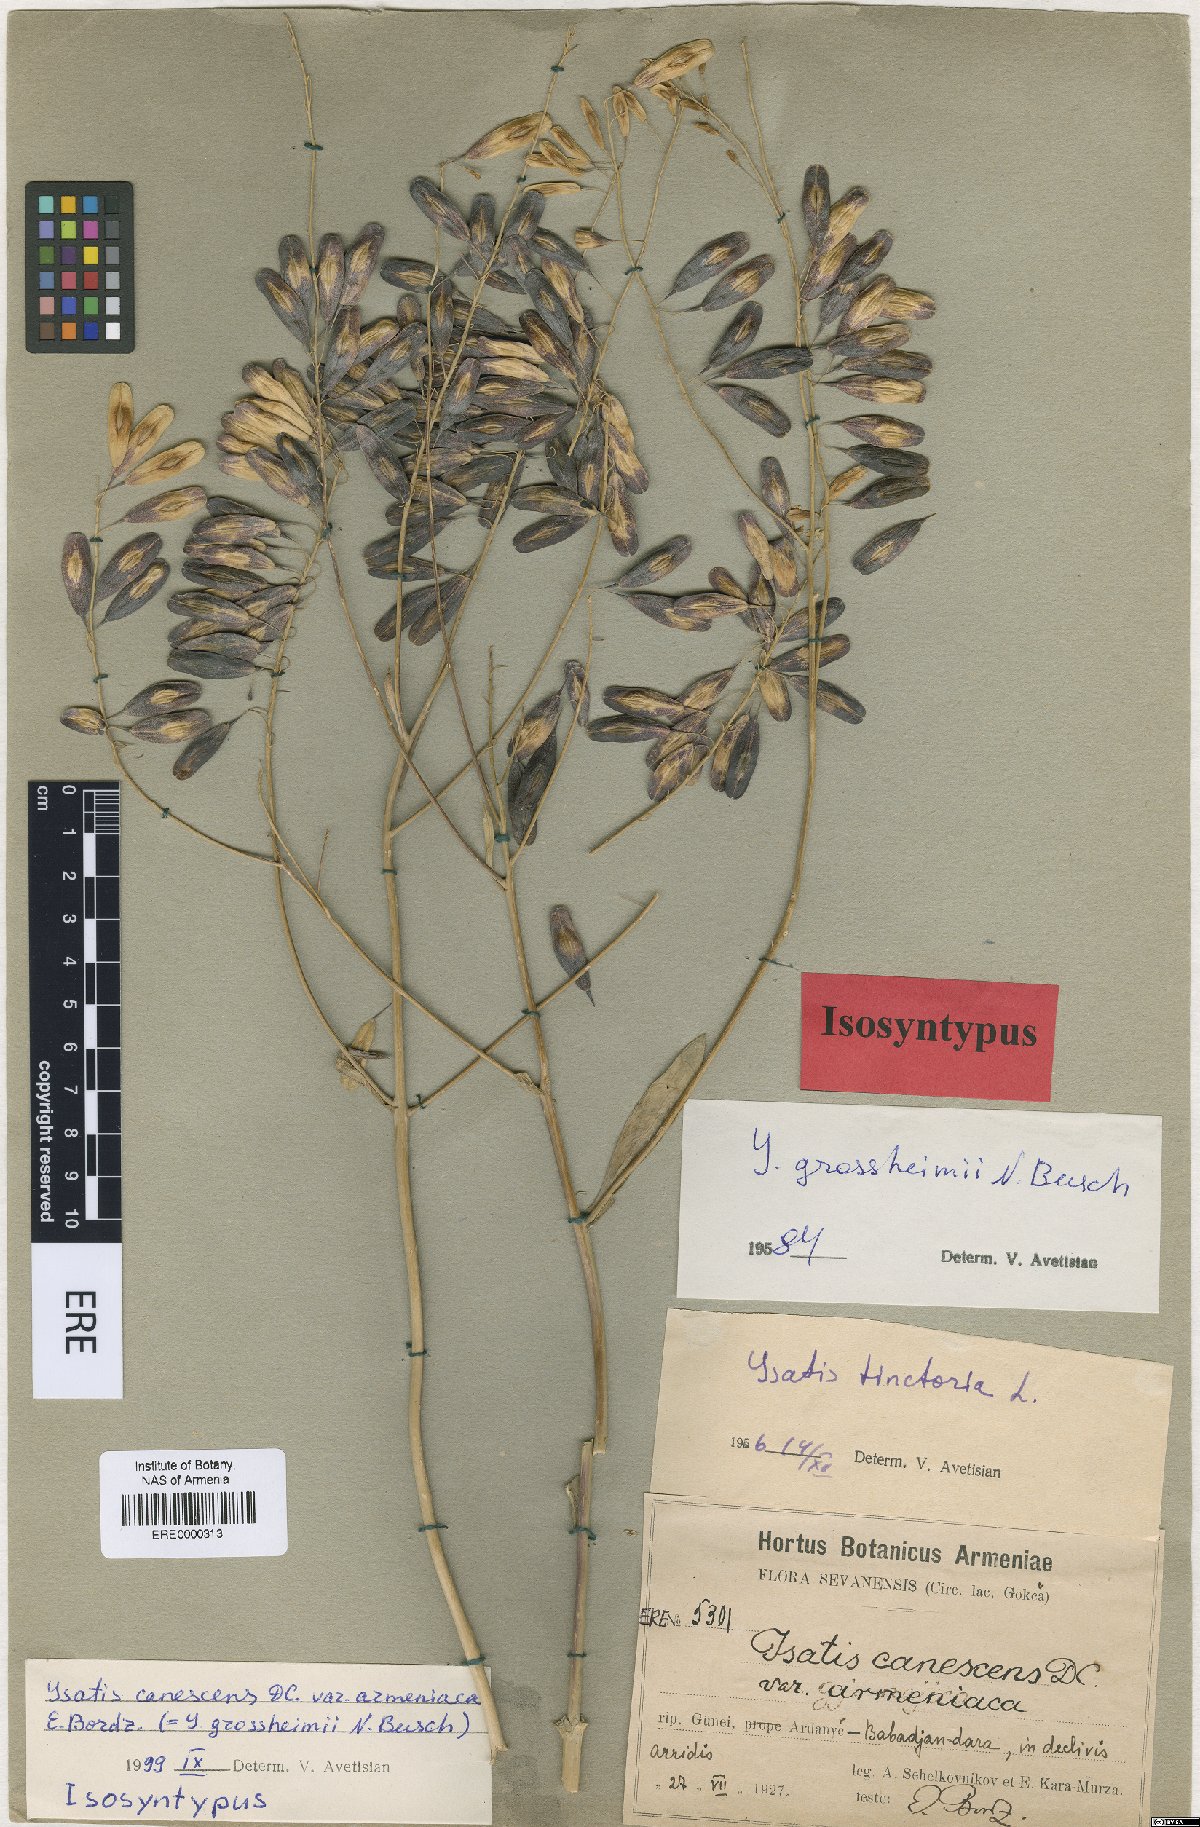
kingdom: Plantae
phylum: Tracheophyta
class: Magnoliopsida
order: Brassicales
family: Brassicaceae
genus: Isatis
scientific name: Isatis tinctoria
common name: Woad
